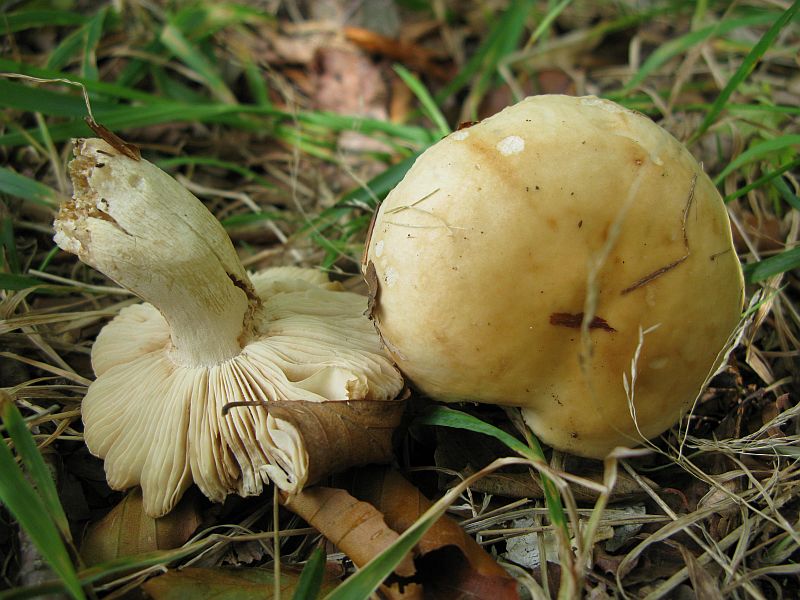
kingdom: Fungi
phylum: Basidiomycota
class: Agaricomycetes
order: Russulales
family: Russulaceae
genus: Russula
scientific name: Russula foetens
